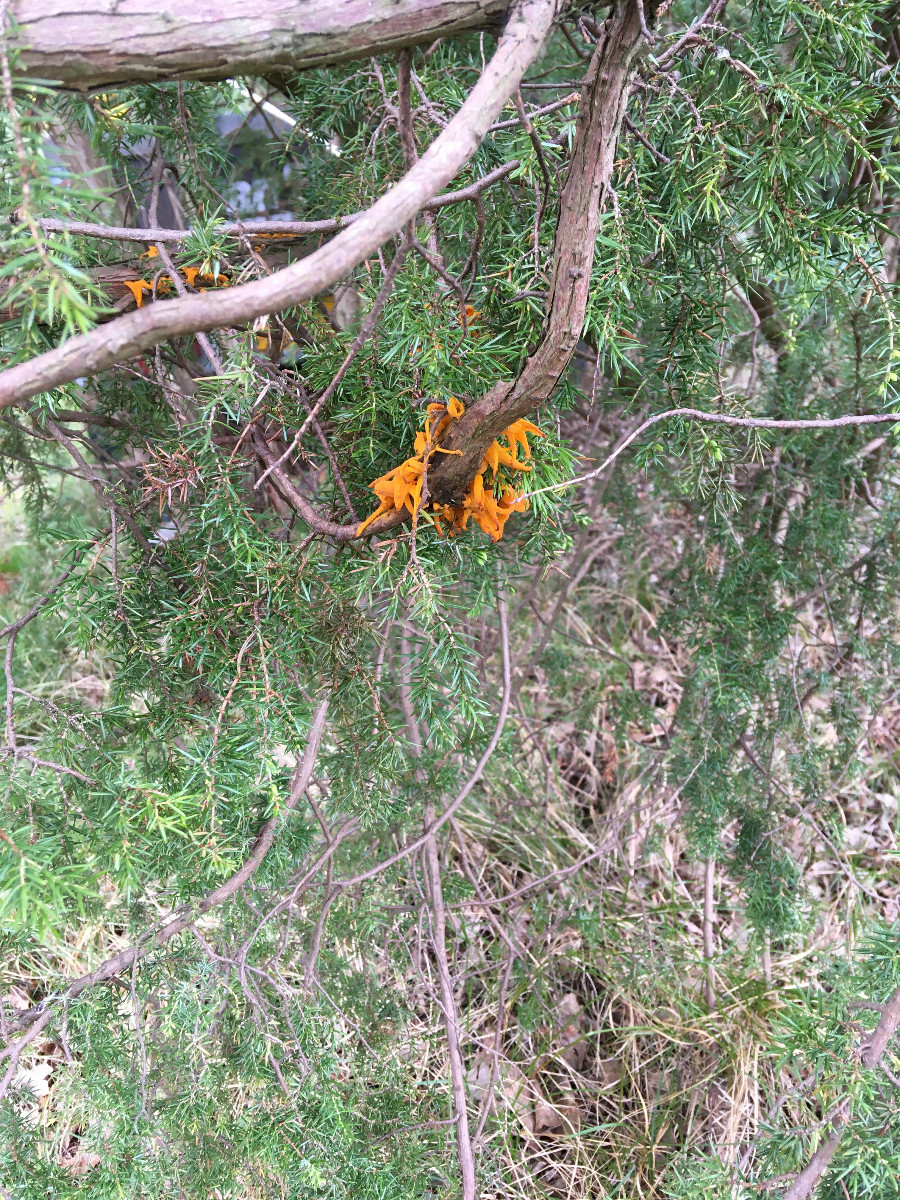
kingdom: Fungi
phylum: Basidiomycota
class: Pucciniomycetes
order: Pucciniales
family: Gymnosporangiaceae
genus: Gymnosporangium
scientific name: Gymnosporangium clavariiforme
